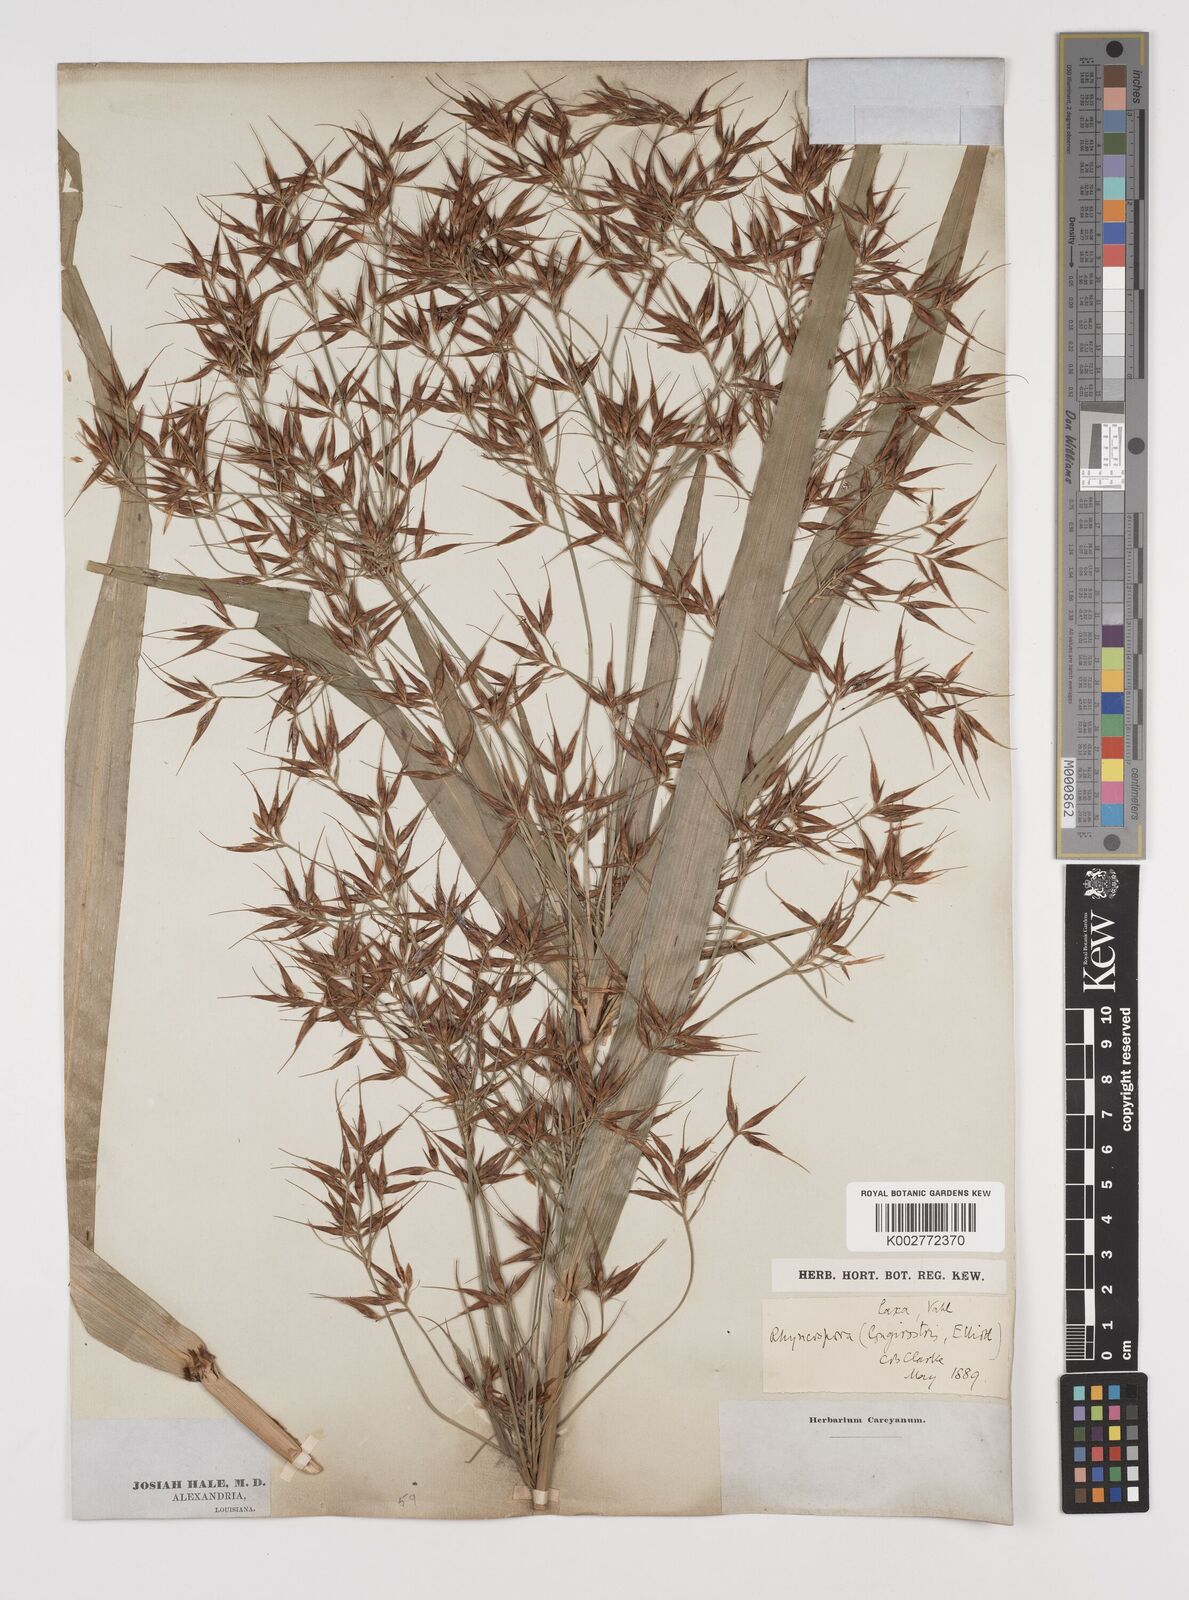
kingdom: Plantae
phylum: Tracheophyta
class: Liliopsida
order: Poales
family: Cyperaceae
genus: Rhynchospora
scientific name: Rhynchospora corniculata
